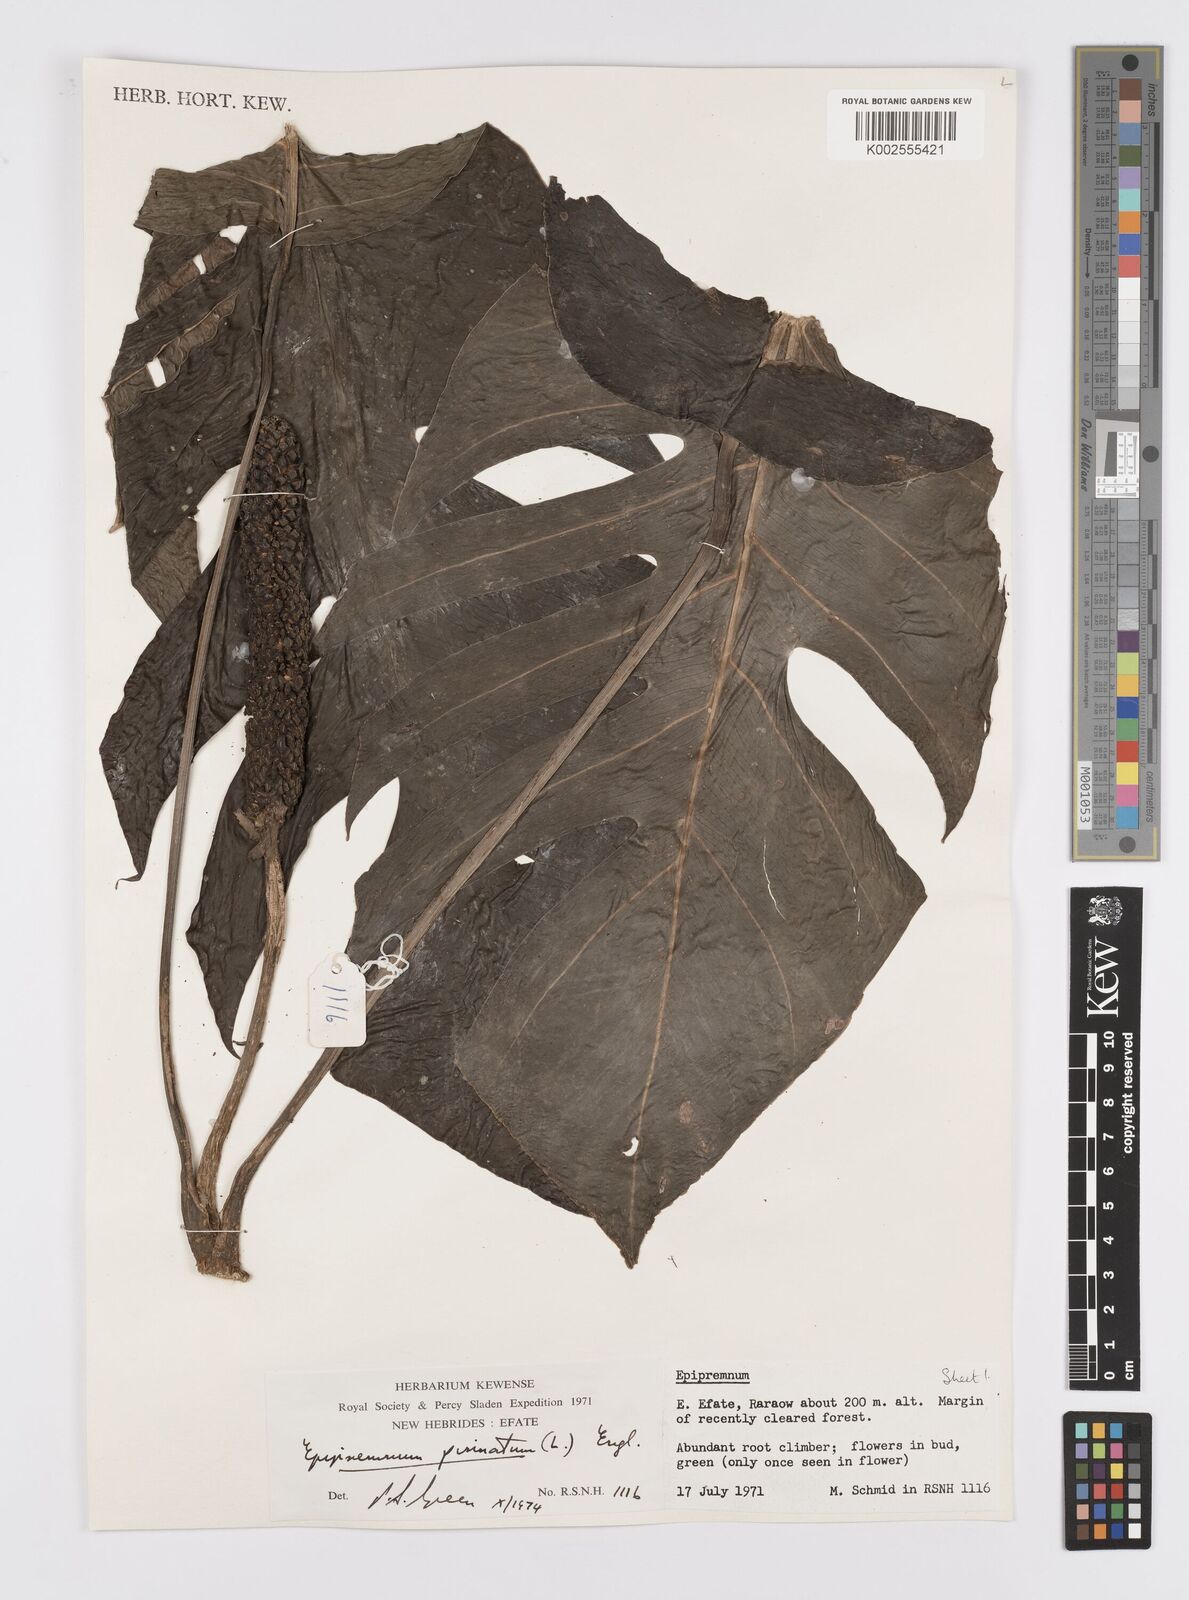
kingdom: Plantae
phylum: Tracheophyta
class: Liliopsida
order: Alismatales
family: Araceae
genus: Epipremnum
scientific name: Epipremnum pinnatum
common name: Centipede tongavine
